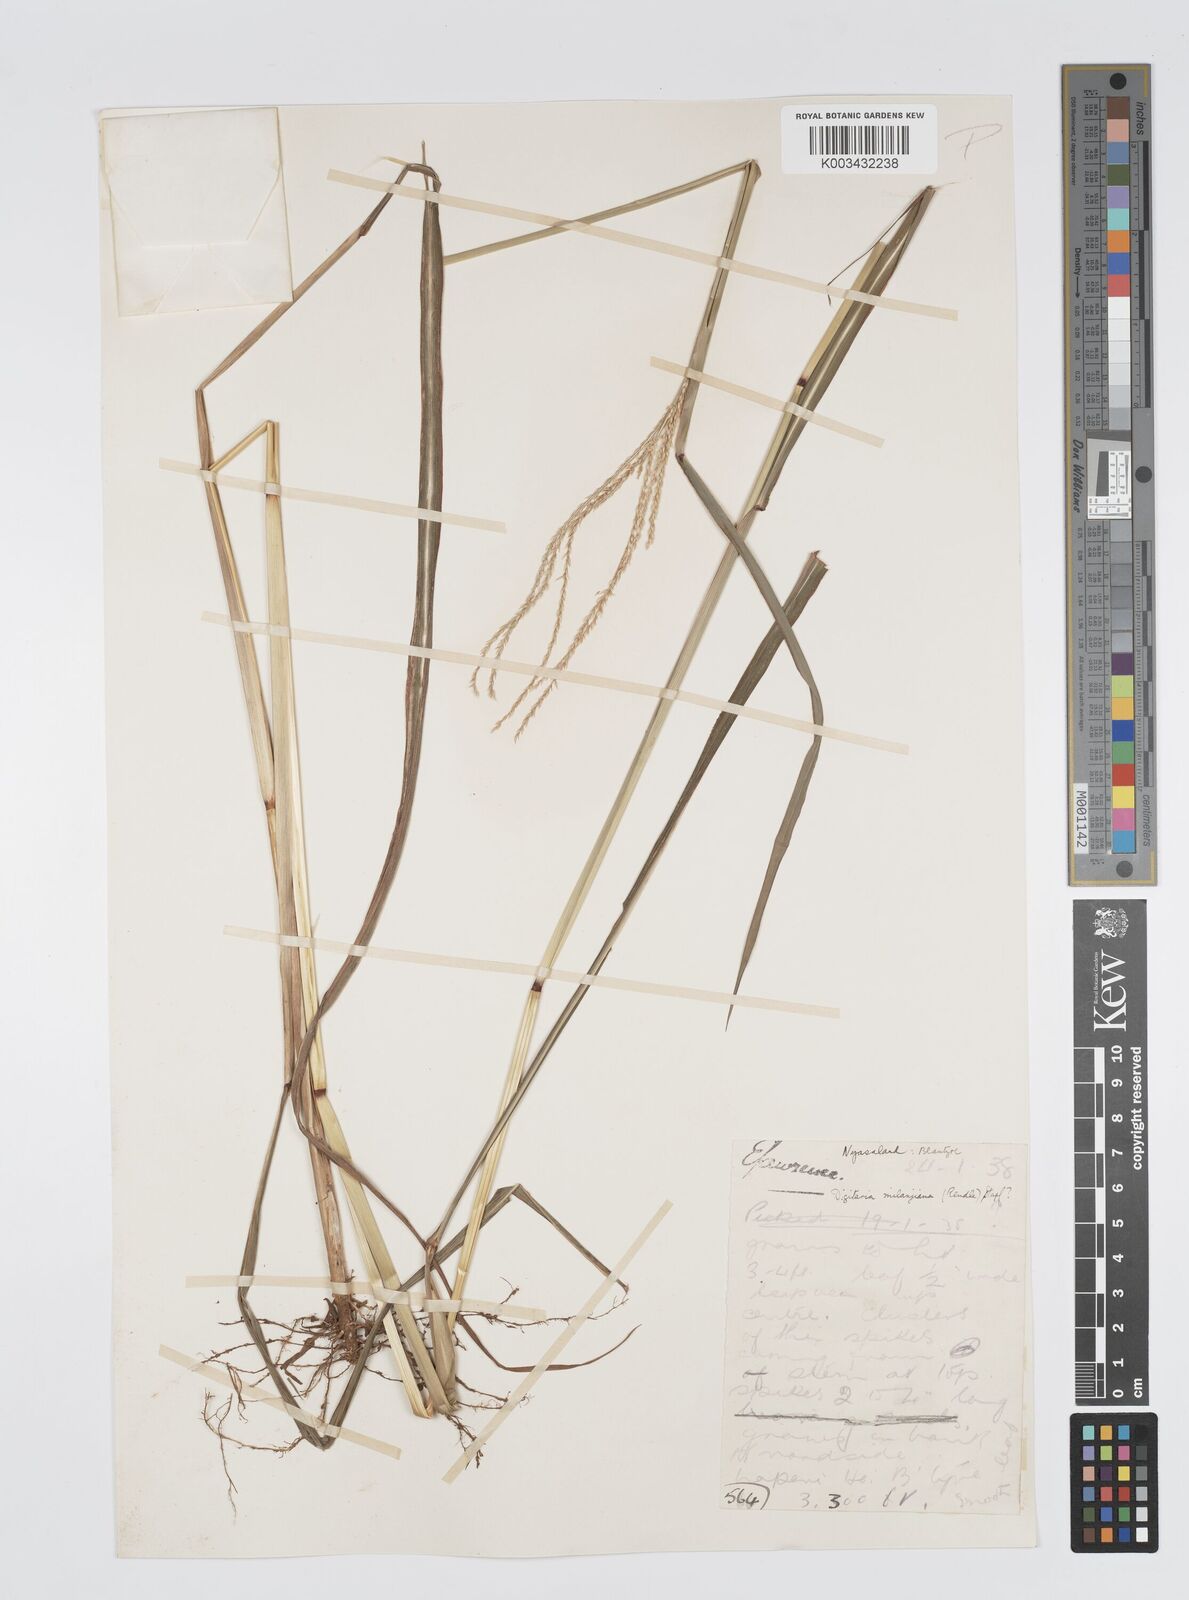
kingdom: Plantae
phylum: Tracheophyta
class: Liliopsida
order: Poales
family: Poaceae
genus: Digitaria
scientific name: Digitaria milanjiana
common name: Madagascar crabgrass
